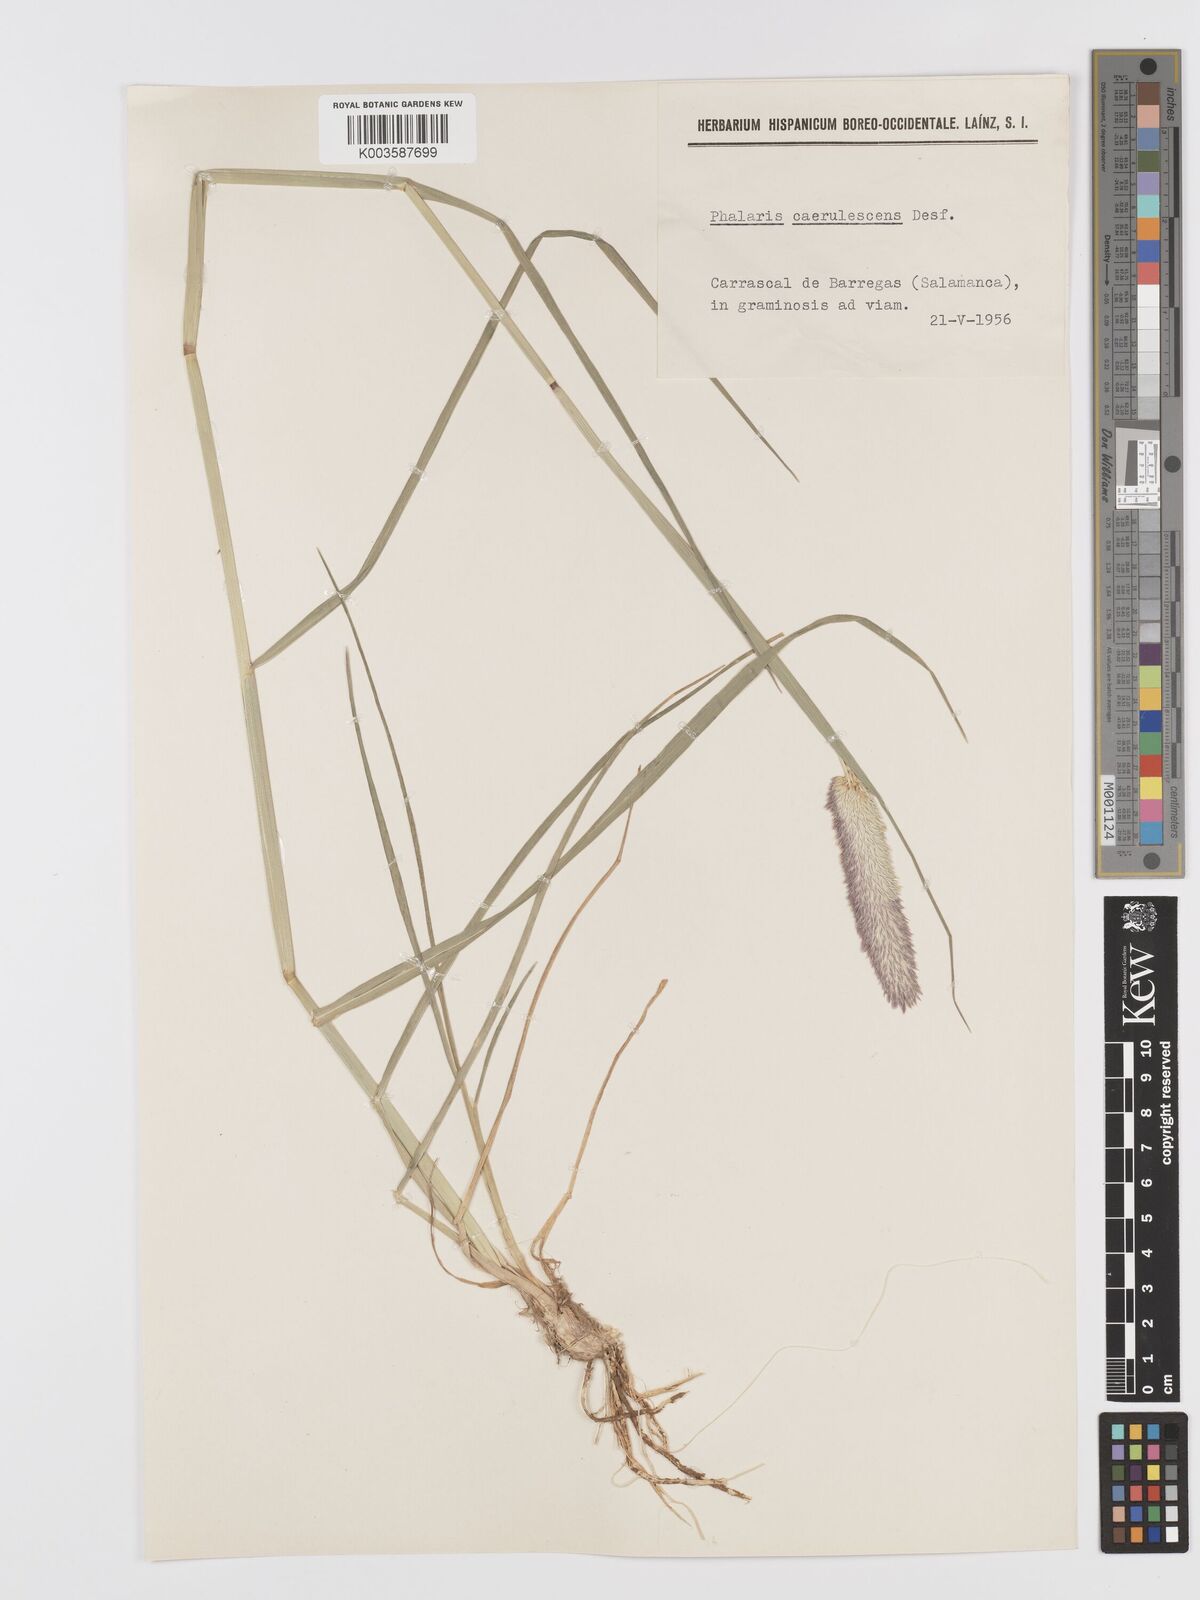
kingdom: Plantae
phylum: Tracheophyta
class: Liliopsida
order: Poales
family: Poaceae
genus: Phalaris
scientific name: Phalaris coerulescens
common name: Sunolgrass
